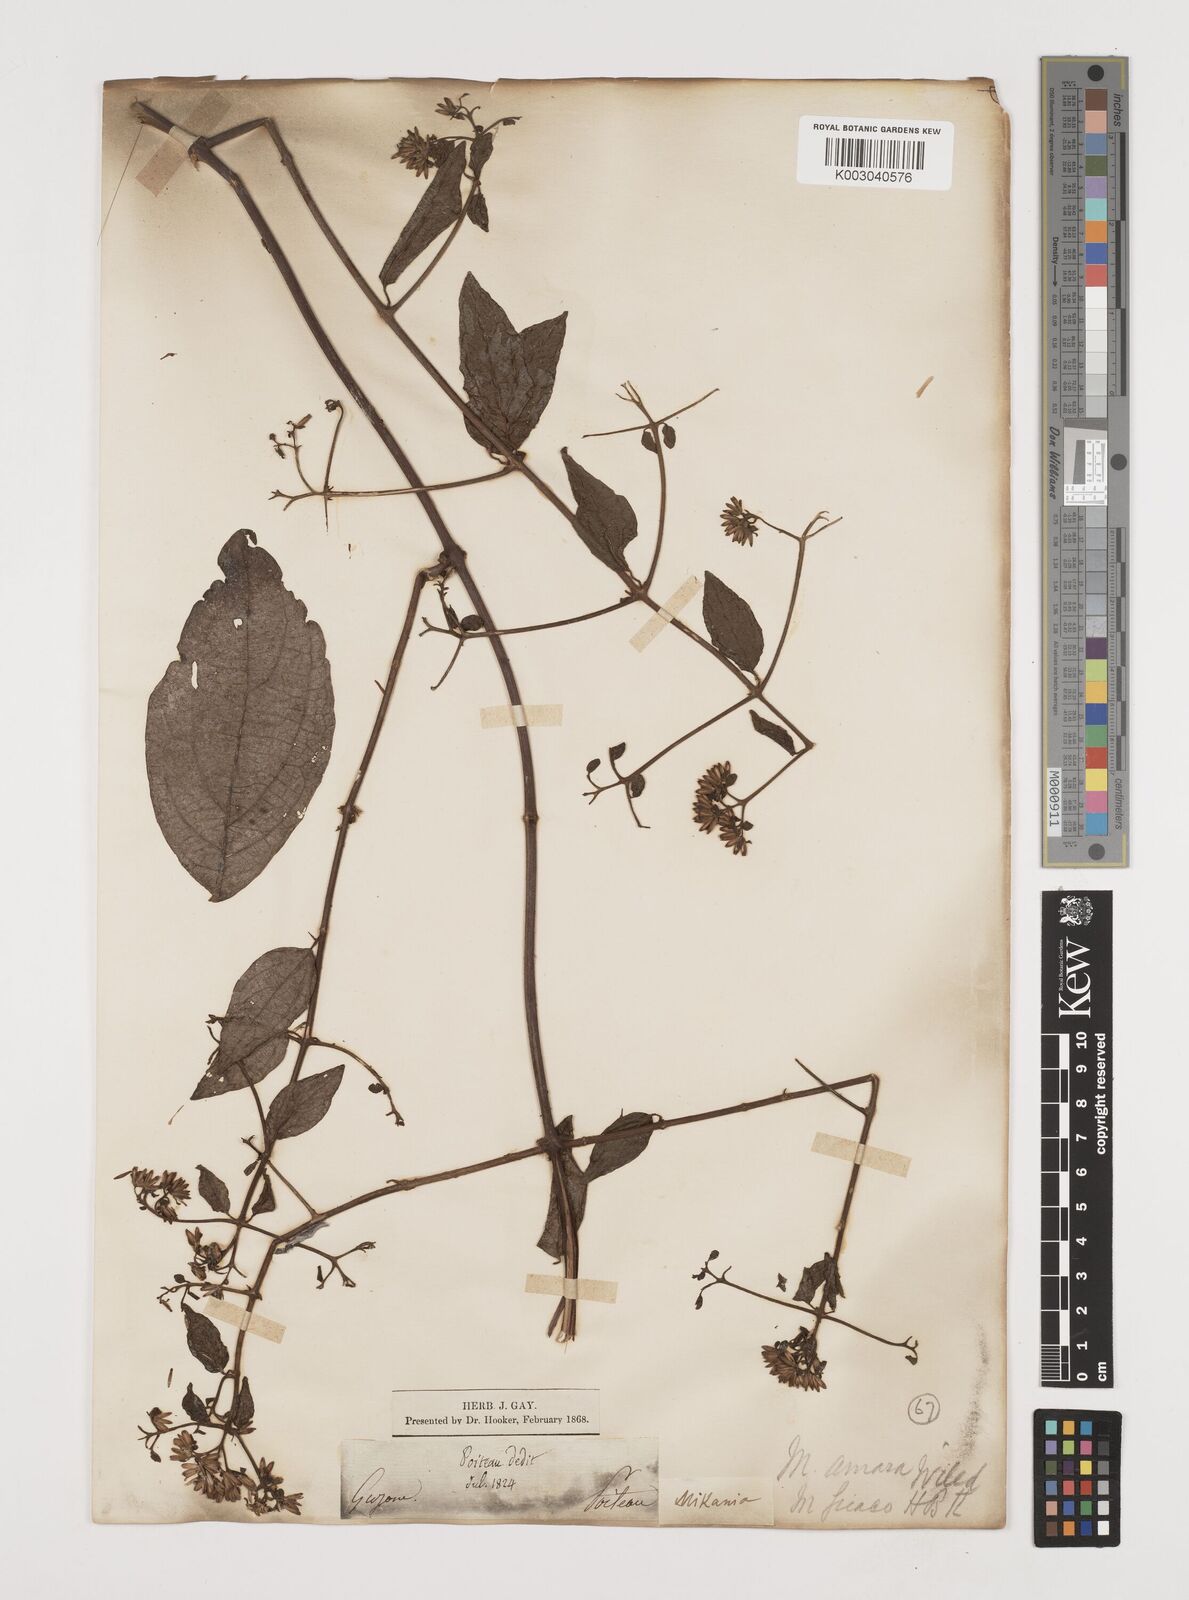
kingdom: Plantae
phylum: Tracheophyta
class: Magnoliopsida
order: Asterales
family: Asteraceae
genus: Mikania
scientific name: Mikania parviflora
